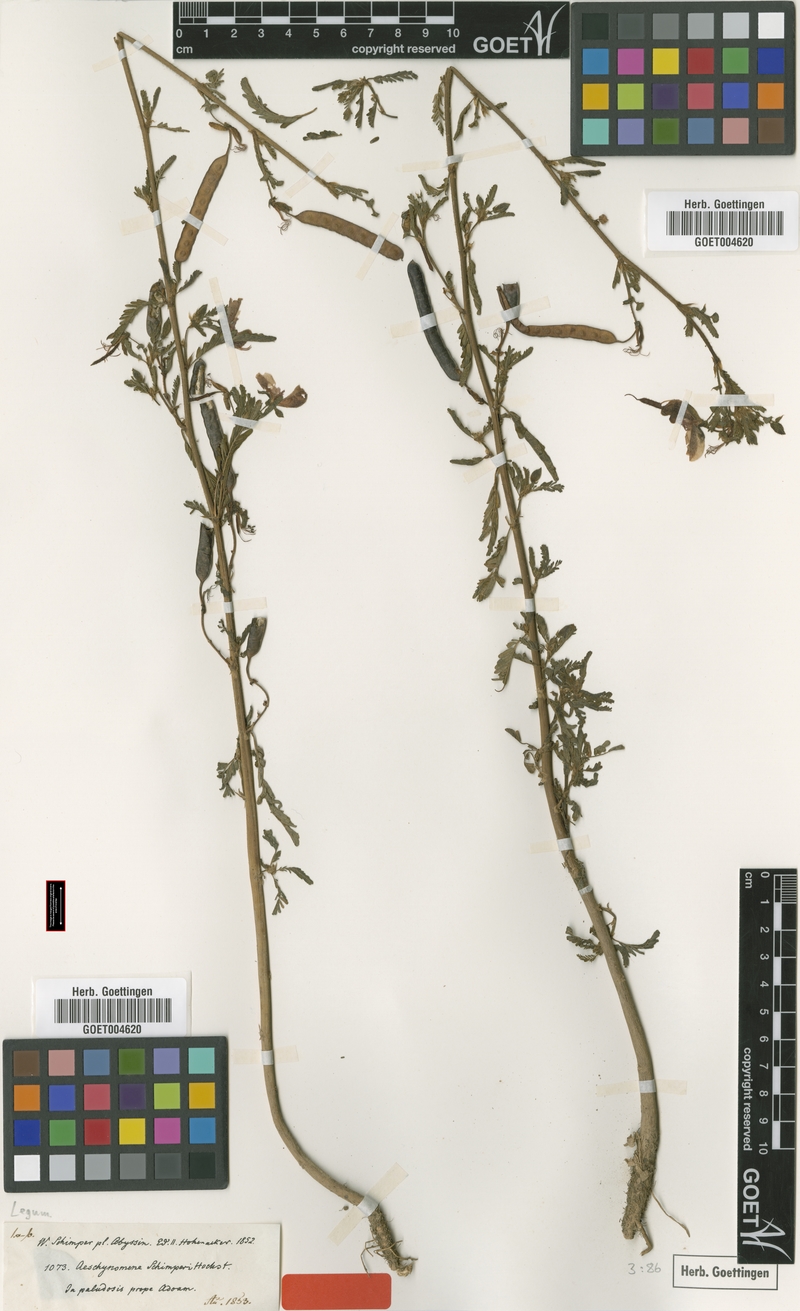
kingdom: Plantae
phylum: Tracheophyta
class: Magnoliopsida
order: Fabales
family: Fabaceae
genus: Aeschynomene
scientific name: Aeschynomene schimperi
